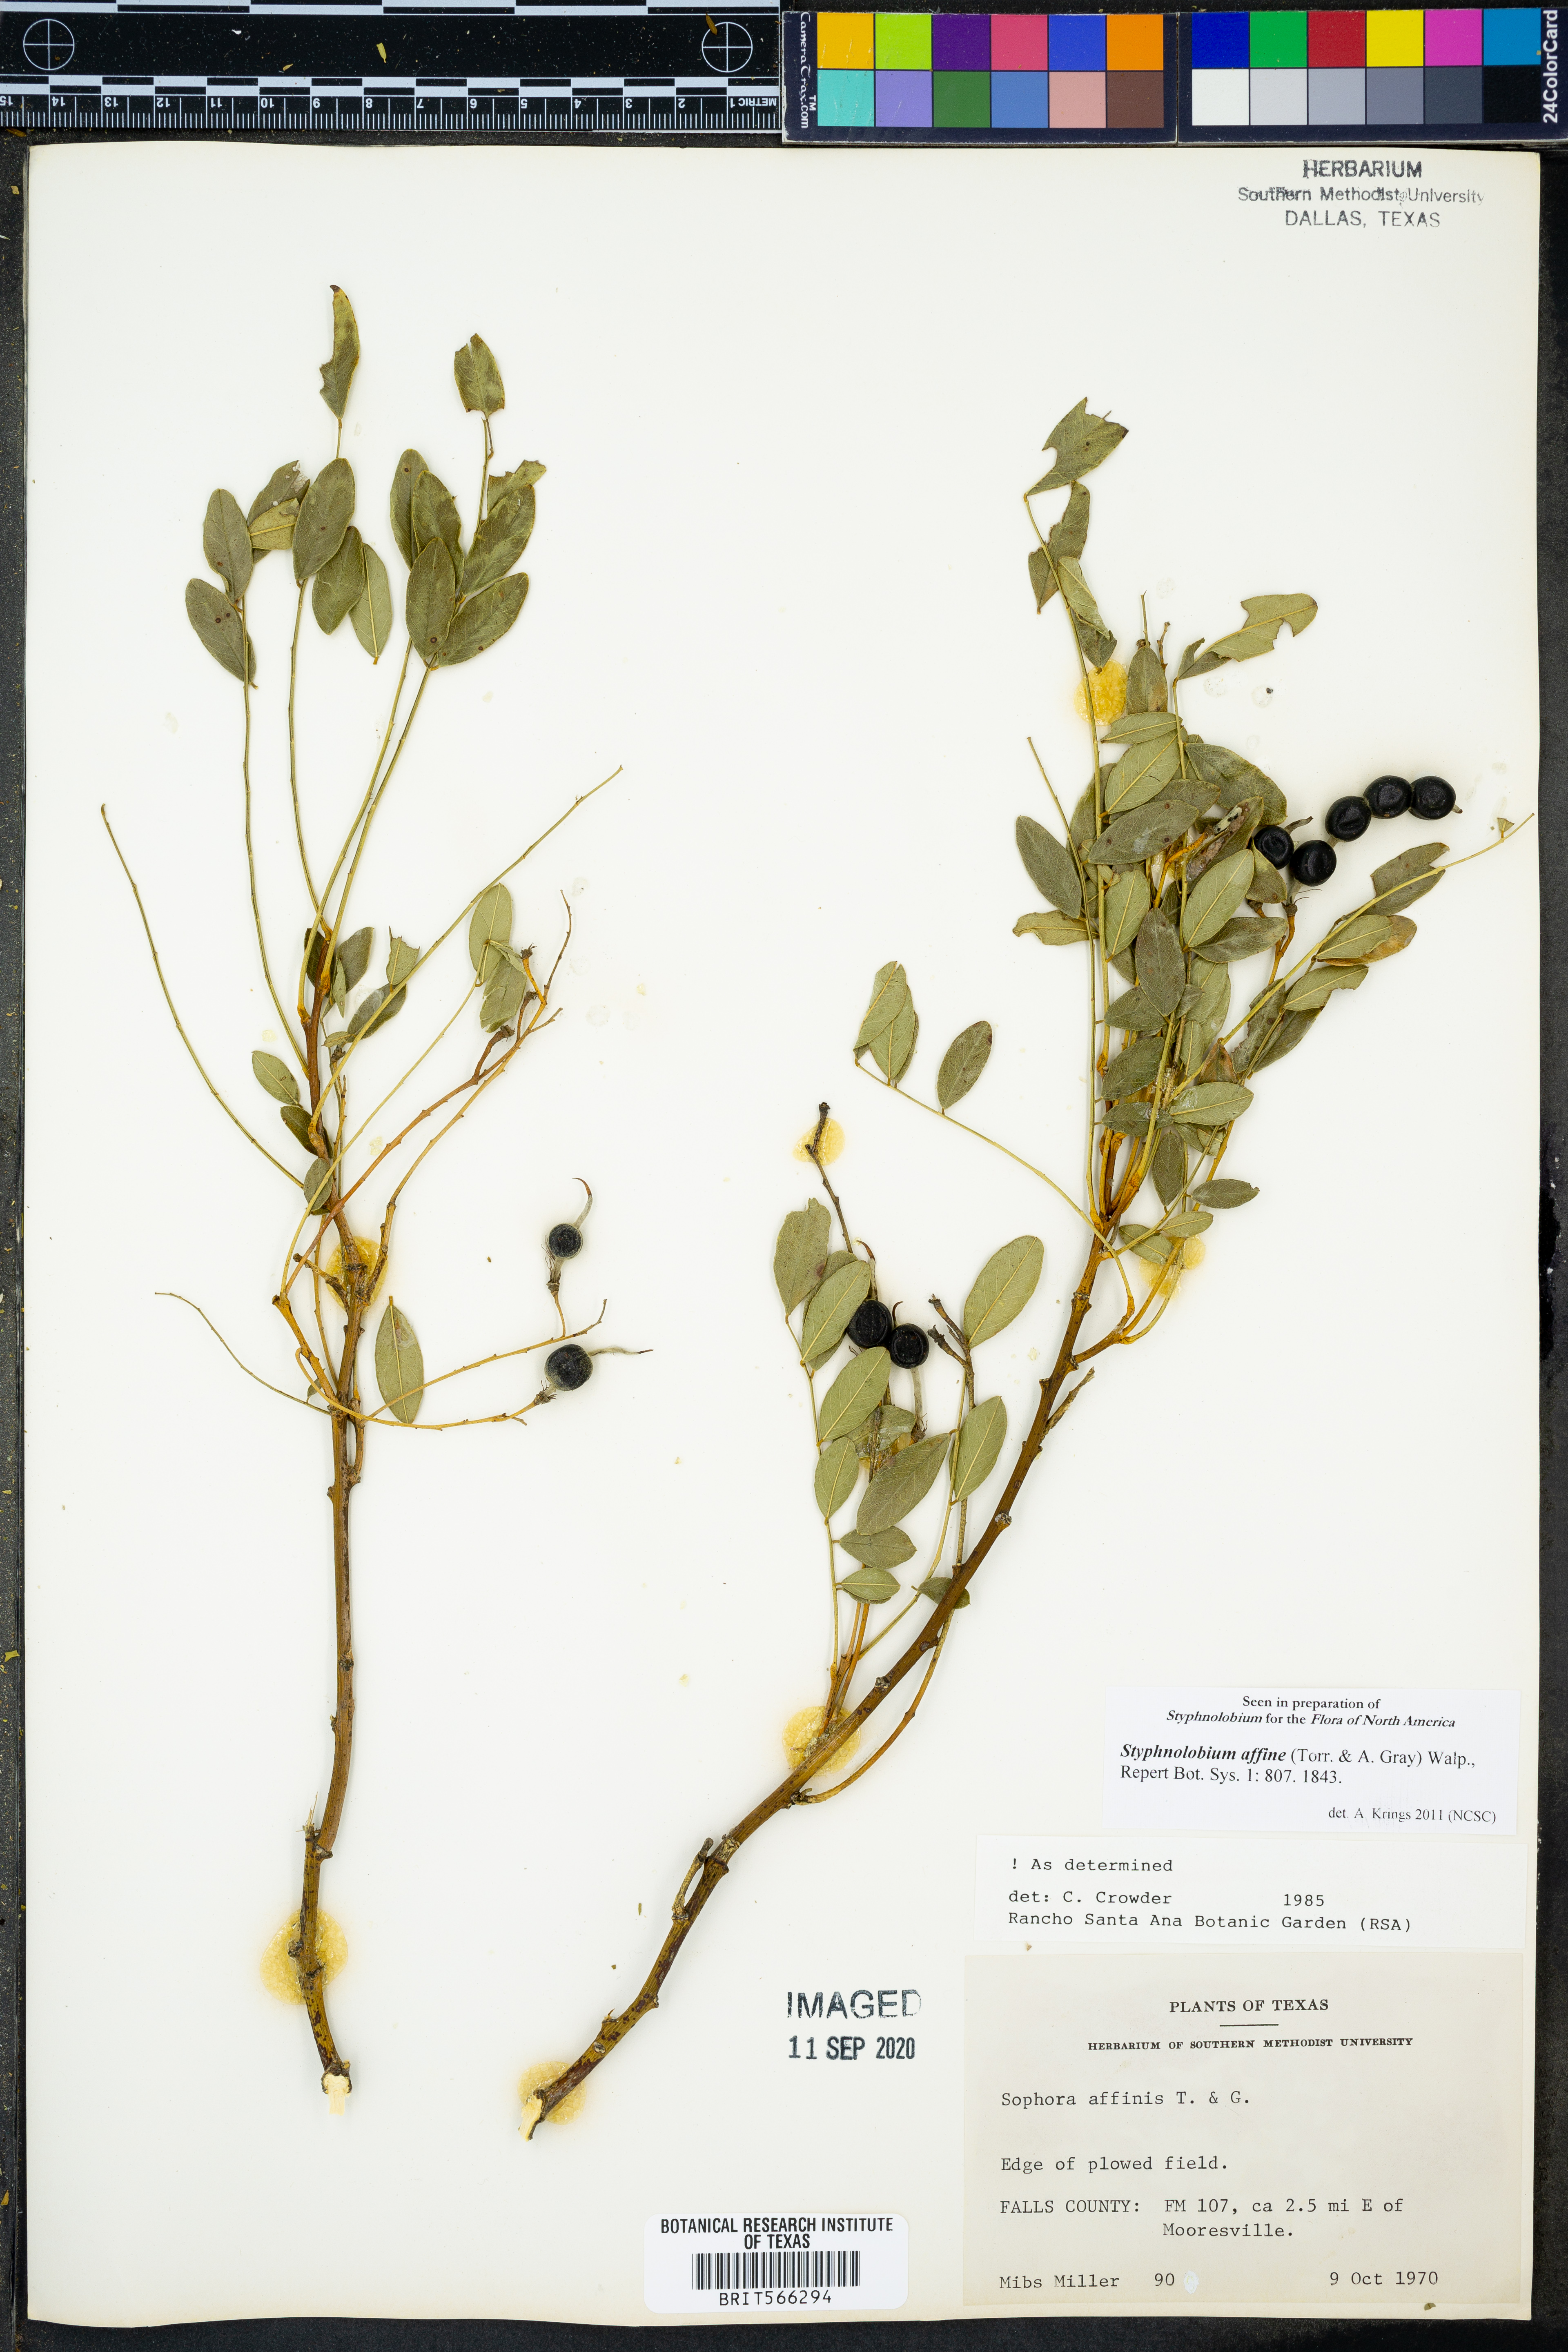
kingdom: Plantae
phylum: Tracheophyta
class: Magnoliopsida
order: Fabales
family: Fabaceae
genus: Styphnolobium
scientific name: Styphnolobium affine
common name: Texas sophora
